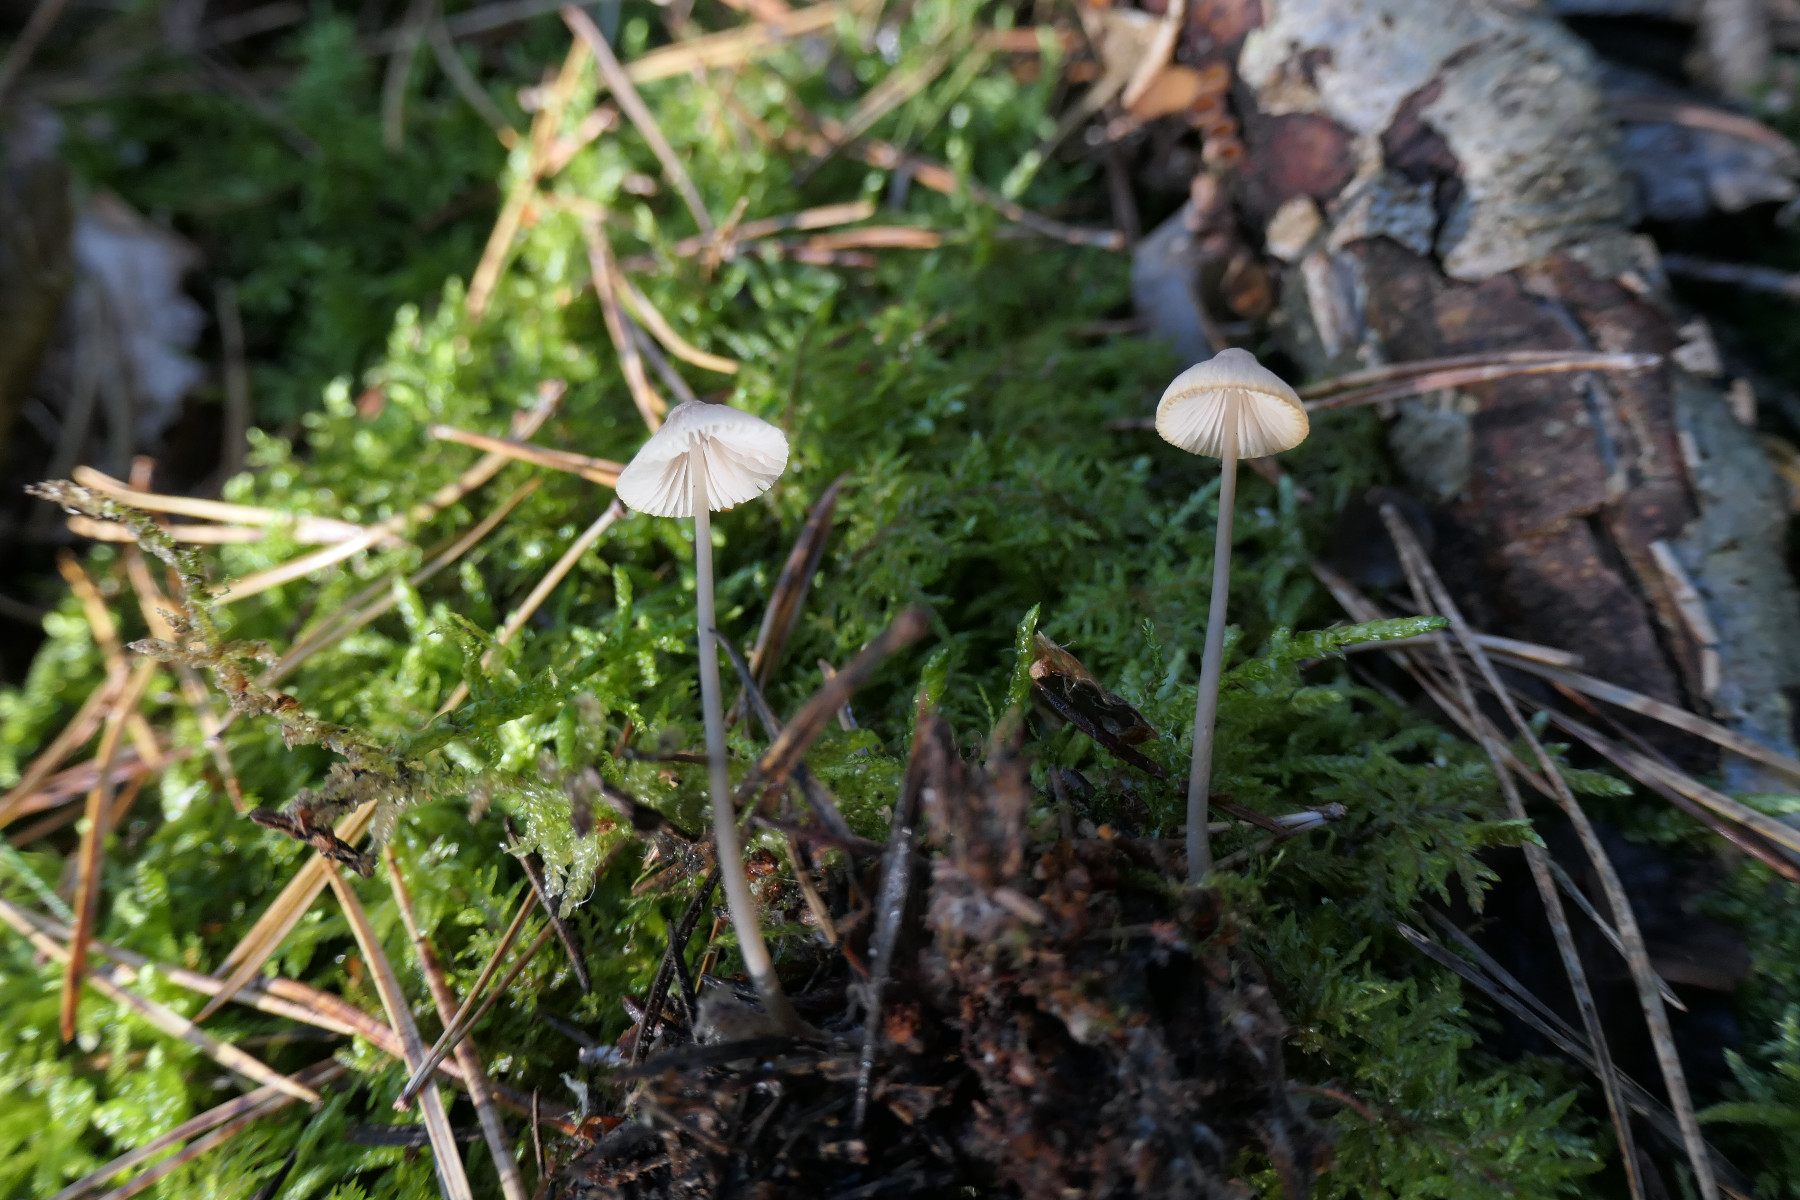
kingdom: Fungi
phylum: Basidiomycota
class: Agaricomycetes
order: Agaricales
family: Mycenaceae
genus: Mycena
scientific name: Mycena filopes
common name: jod-huesvamp
